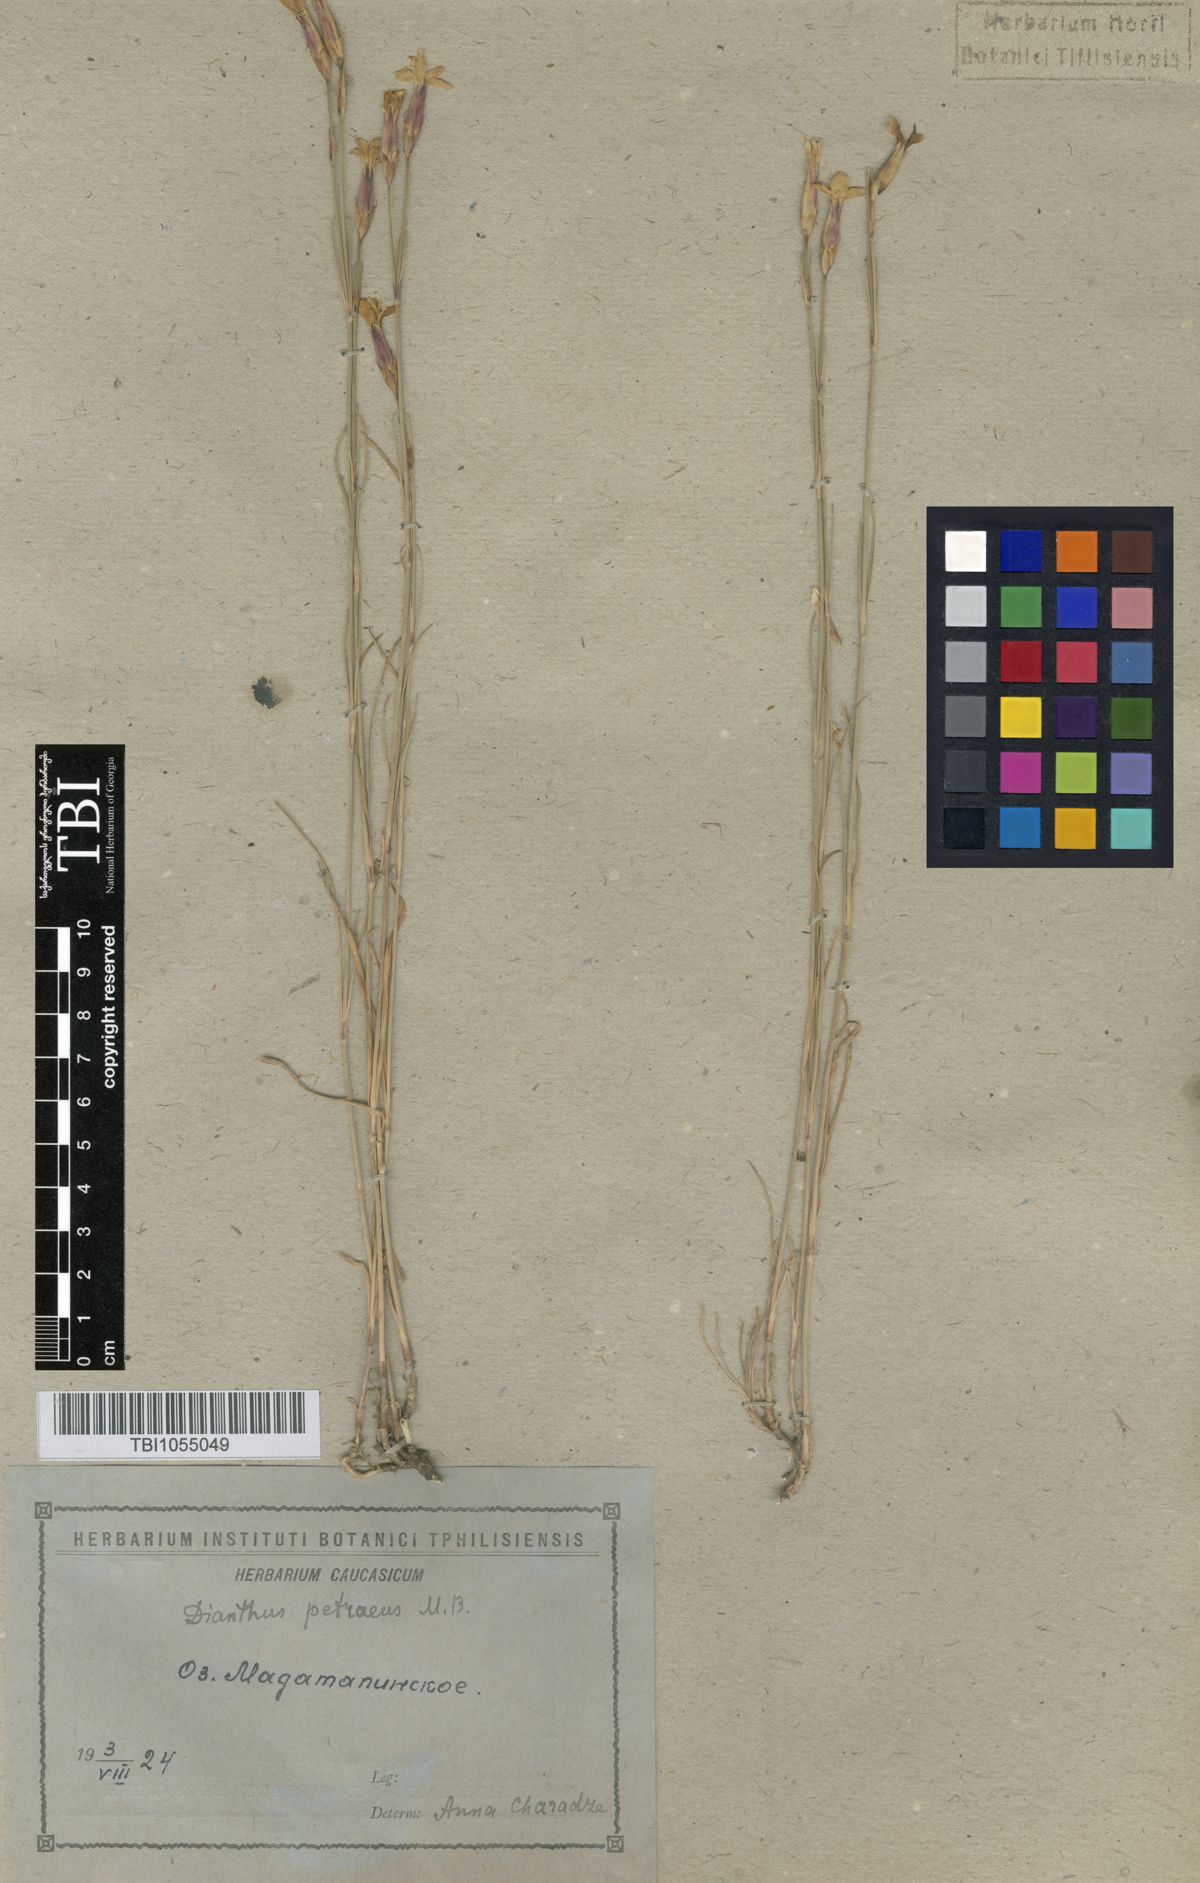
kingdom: Plantae
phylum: Tracheophyta
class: Magnoliopsida
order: Caryophyllales
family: Caryophyllaceae
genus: Dianthus
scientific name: Dianthus cretaceus
